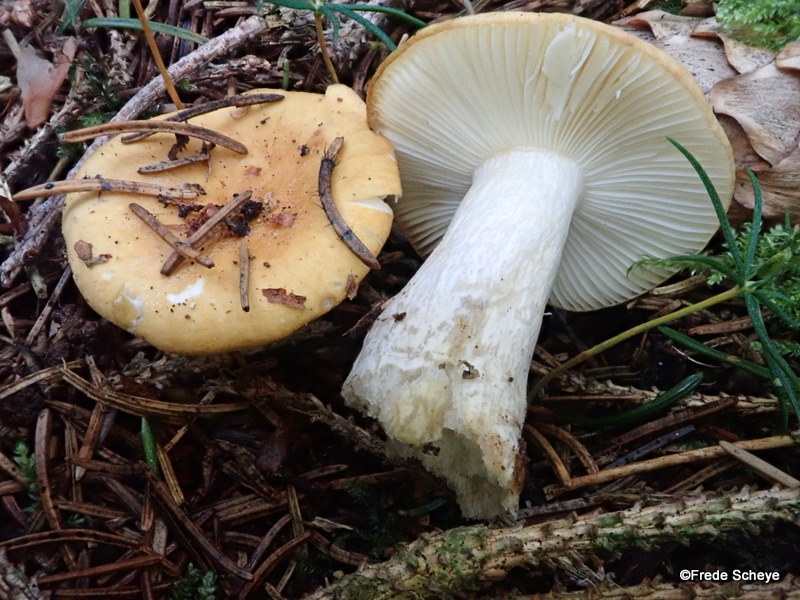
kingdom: Fungi
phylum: Basidiomycota
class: Agaricomycetes
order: Russulales
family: Russulaceae
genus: Russula
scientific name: Russula ochroleuca
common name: okkergul skørhat
